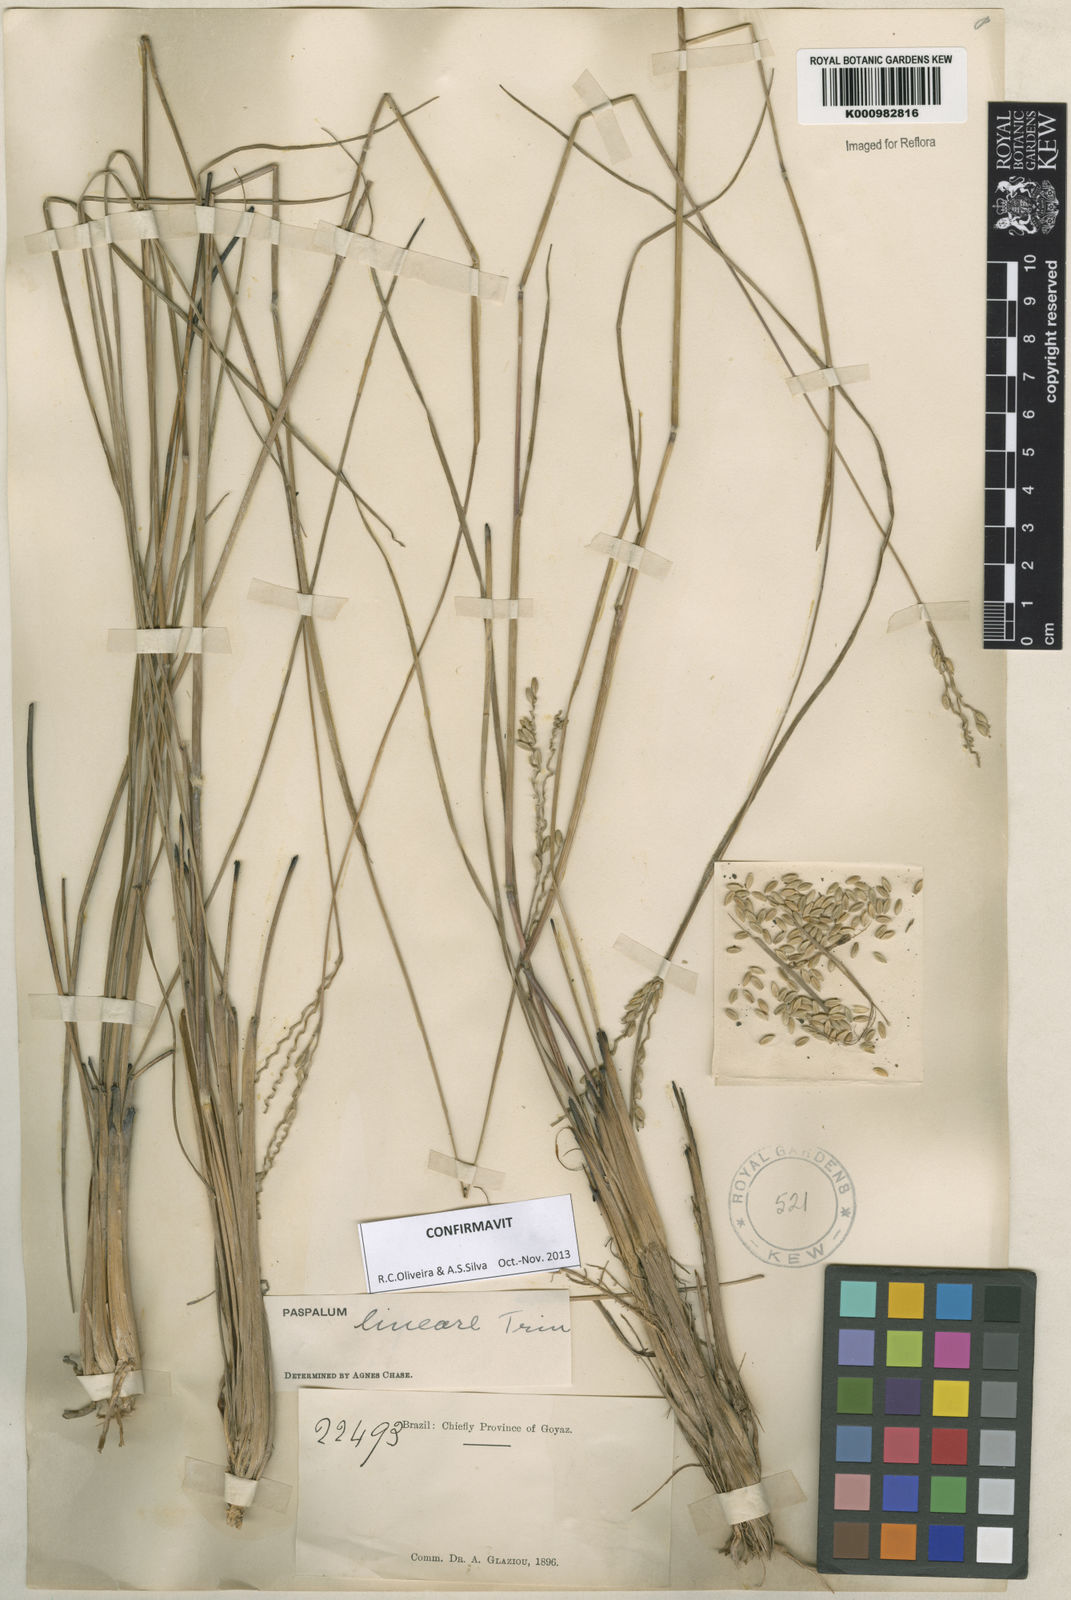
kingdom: Plantae
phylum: Tracheophyta
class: Liliopsida
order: Poales
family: Poaceae
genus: Paspalum
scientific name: Paspalum lineare
